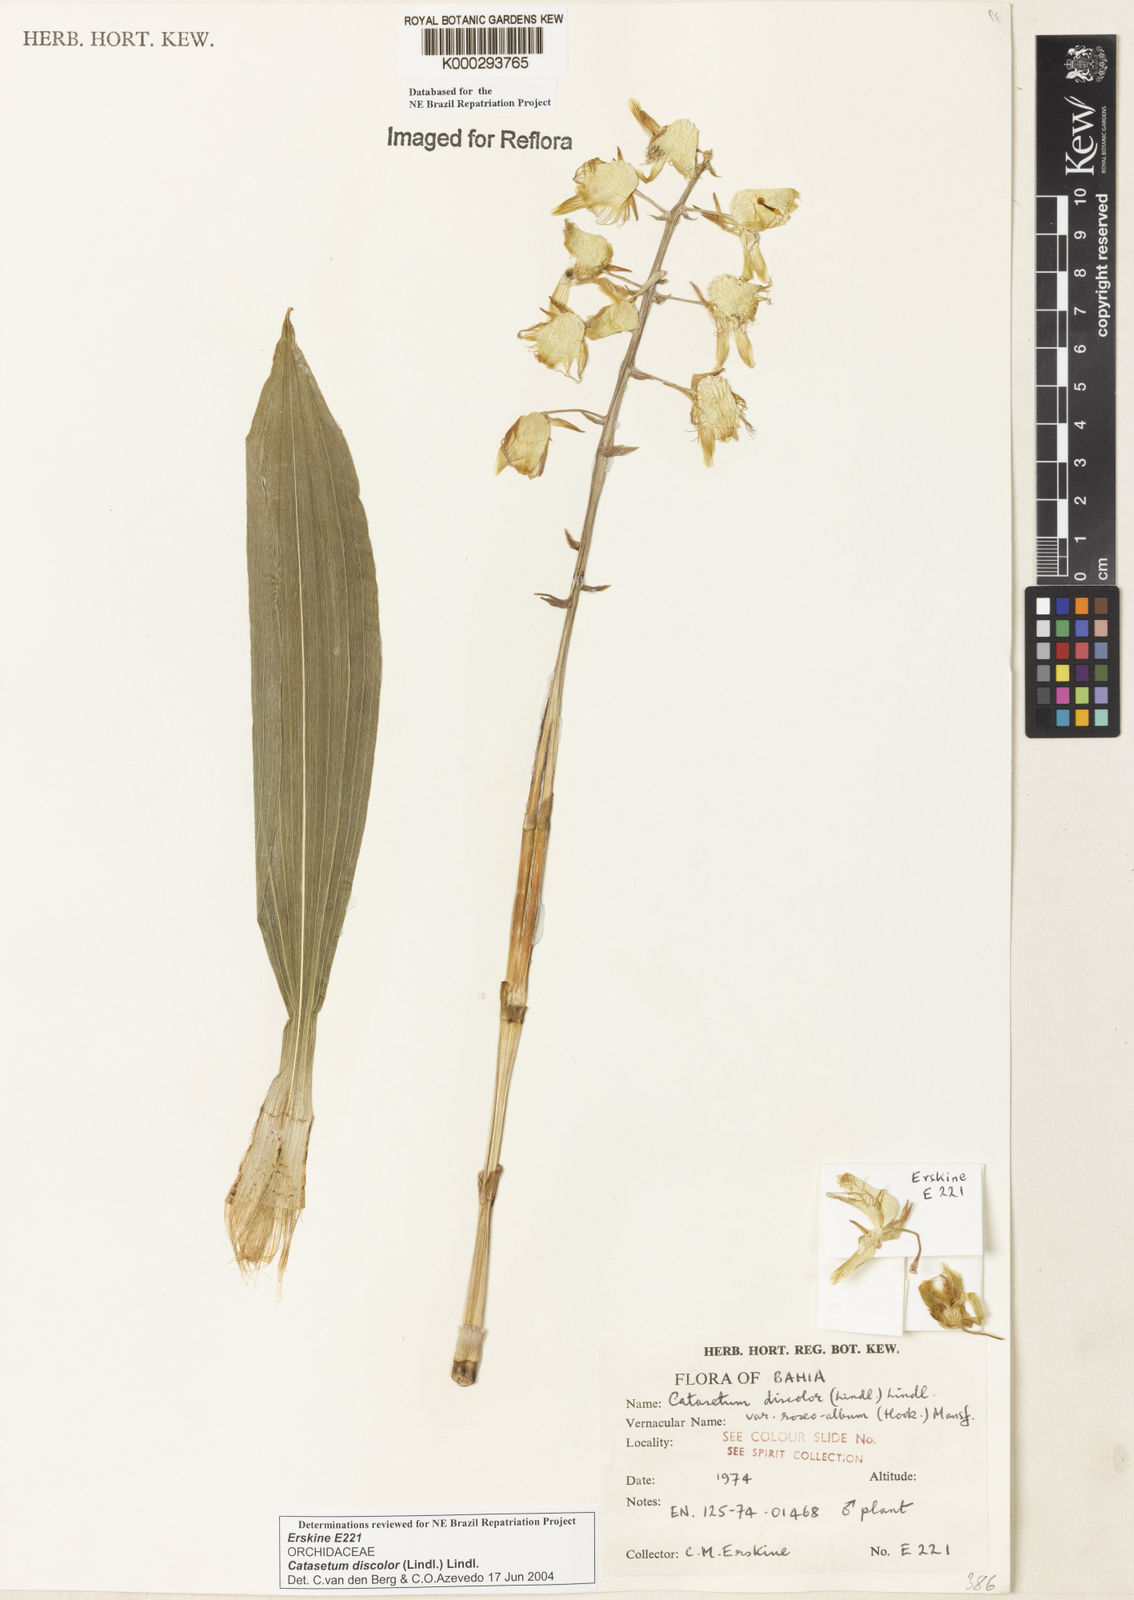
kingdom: Plantae
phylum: Tracheophyta
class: Liliopsida
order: Asparagales
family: Orchidaceae
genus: Catasetum
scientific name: Catasetum discolor
